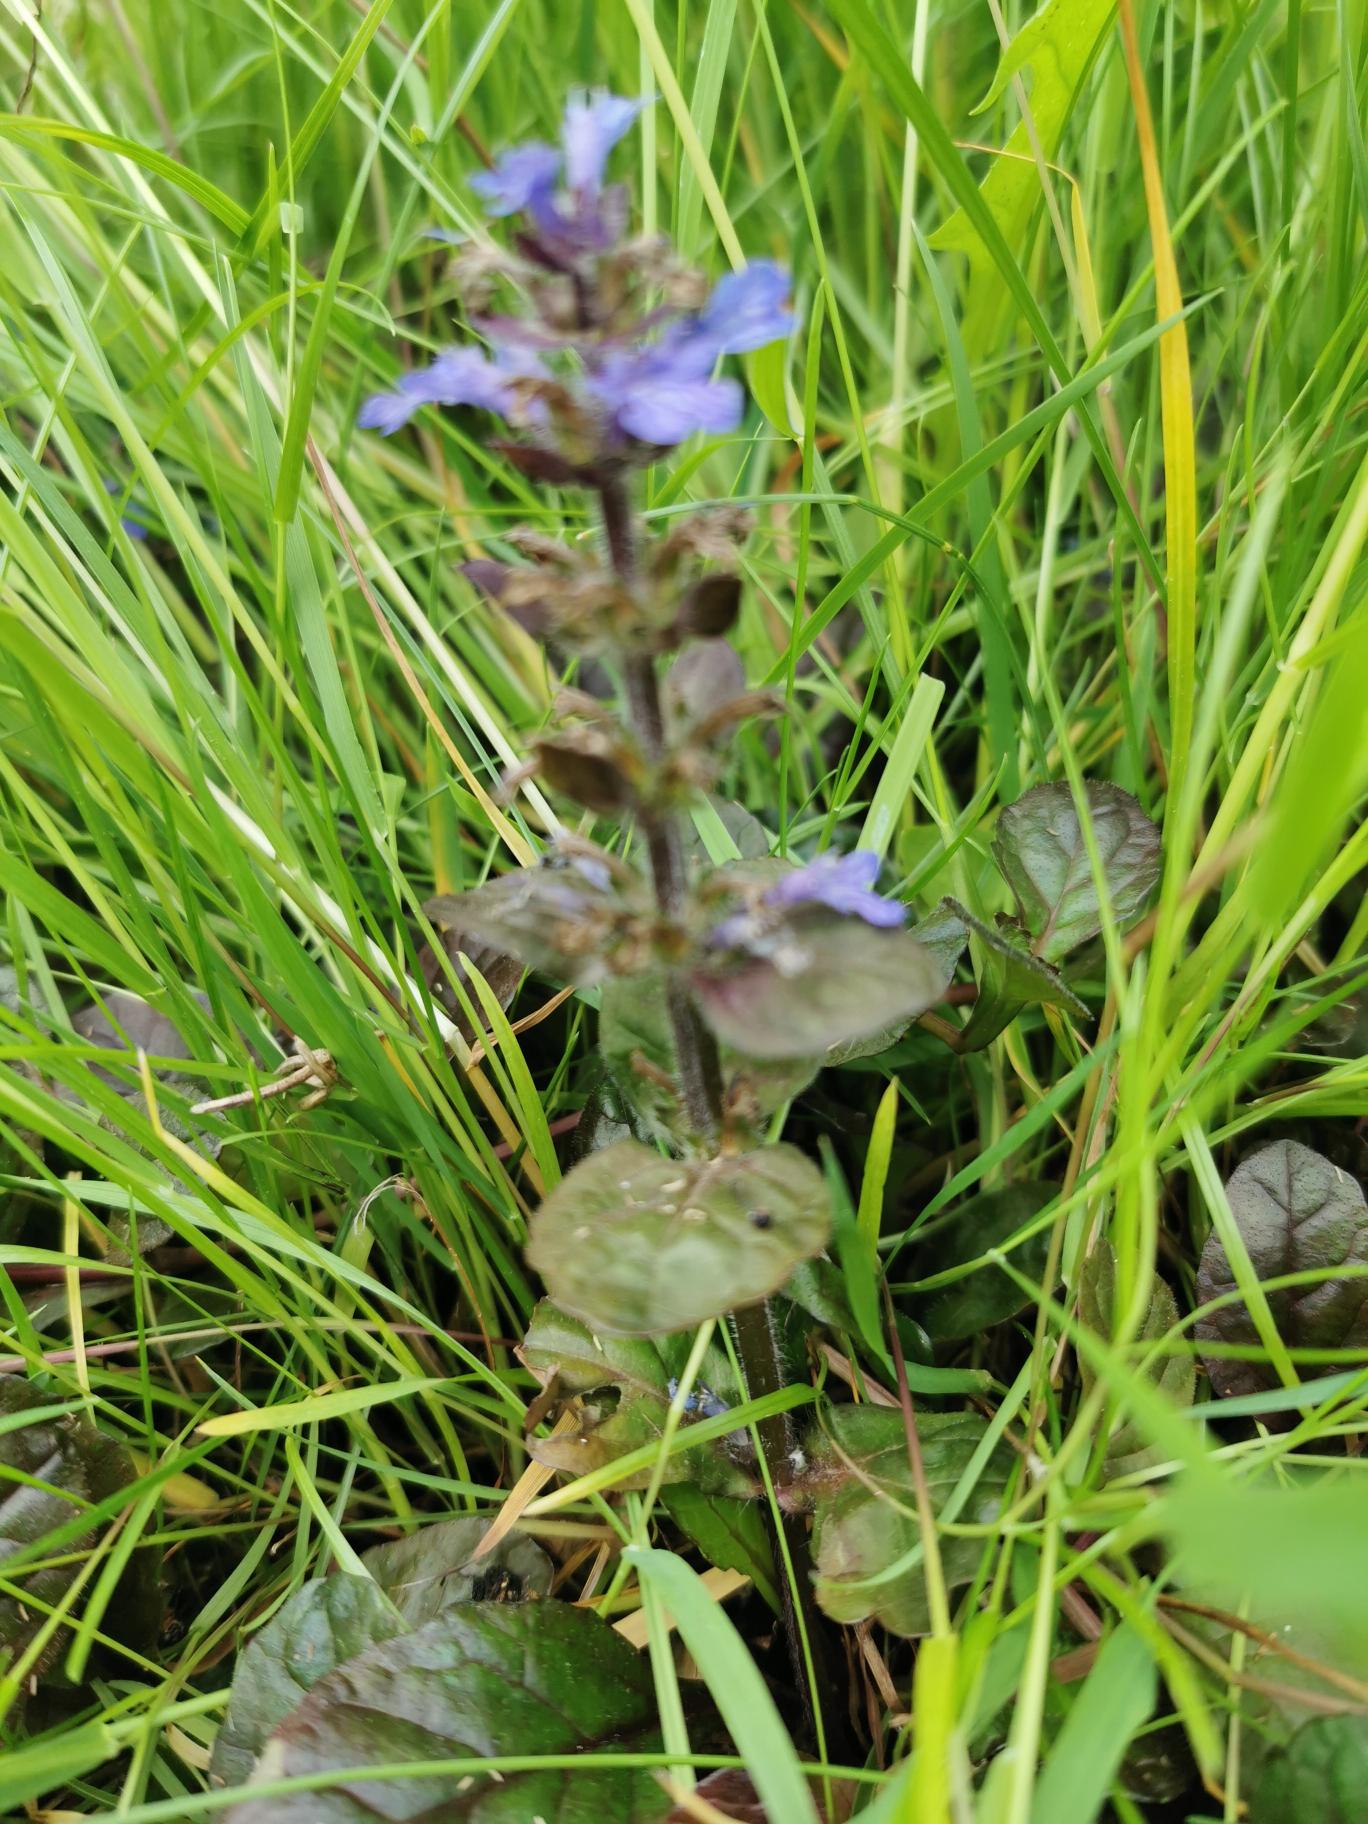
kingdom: Plantae
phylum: Tracheophyta
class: Magnoliopsida
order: Lamiales
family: Lamiaceae
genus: Ajuga
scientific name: Ajuga reptans
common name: Krybende læbeløs
